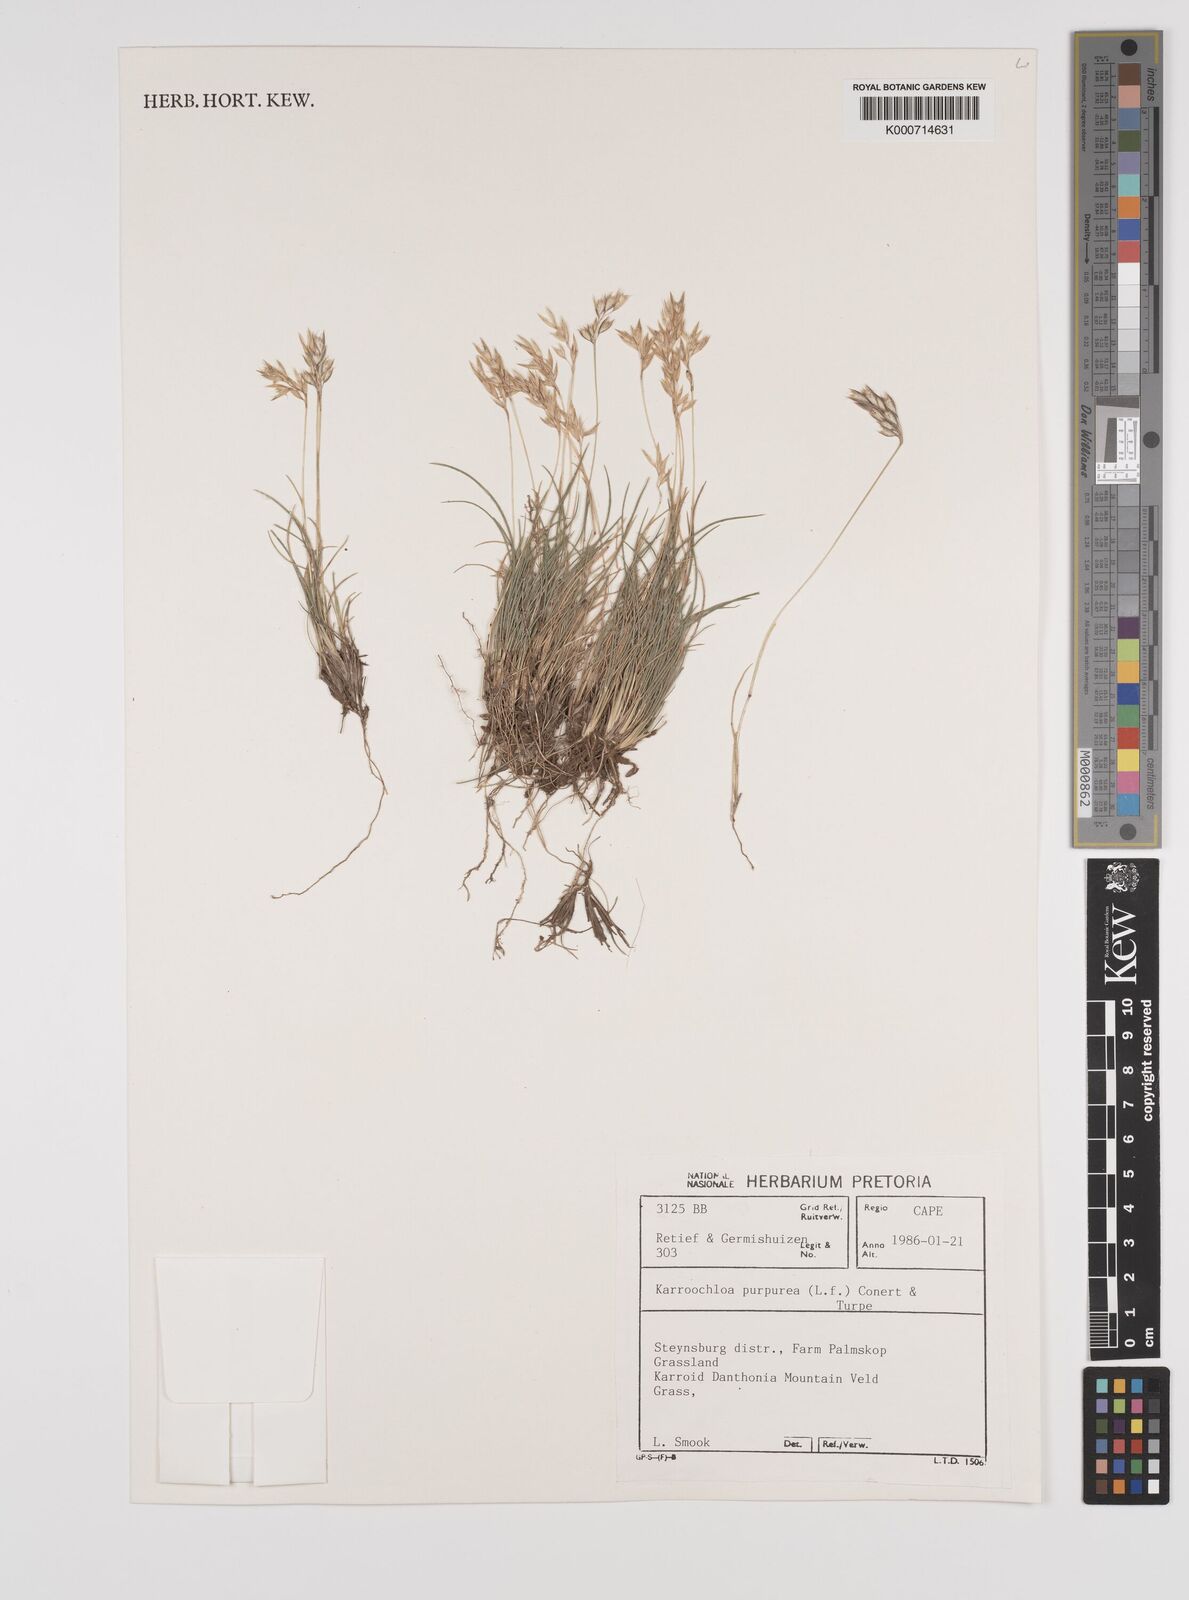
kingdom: Plantae
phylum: Tracheophyta
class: Liliopsida
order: Poales
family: Poaceae
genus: Rytidosperma
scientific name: Rytidosperma
